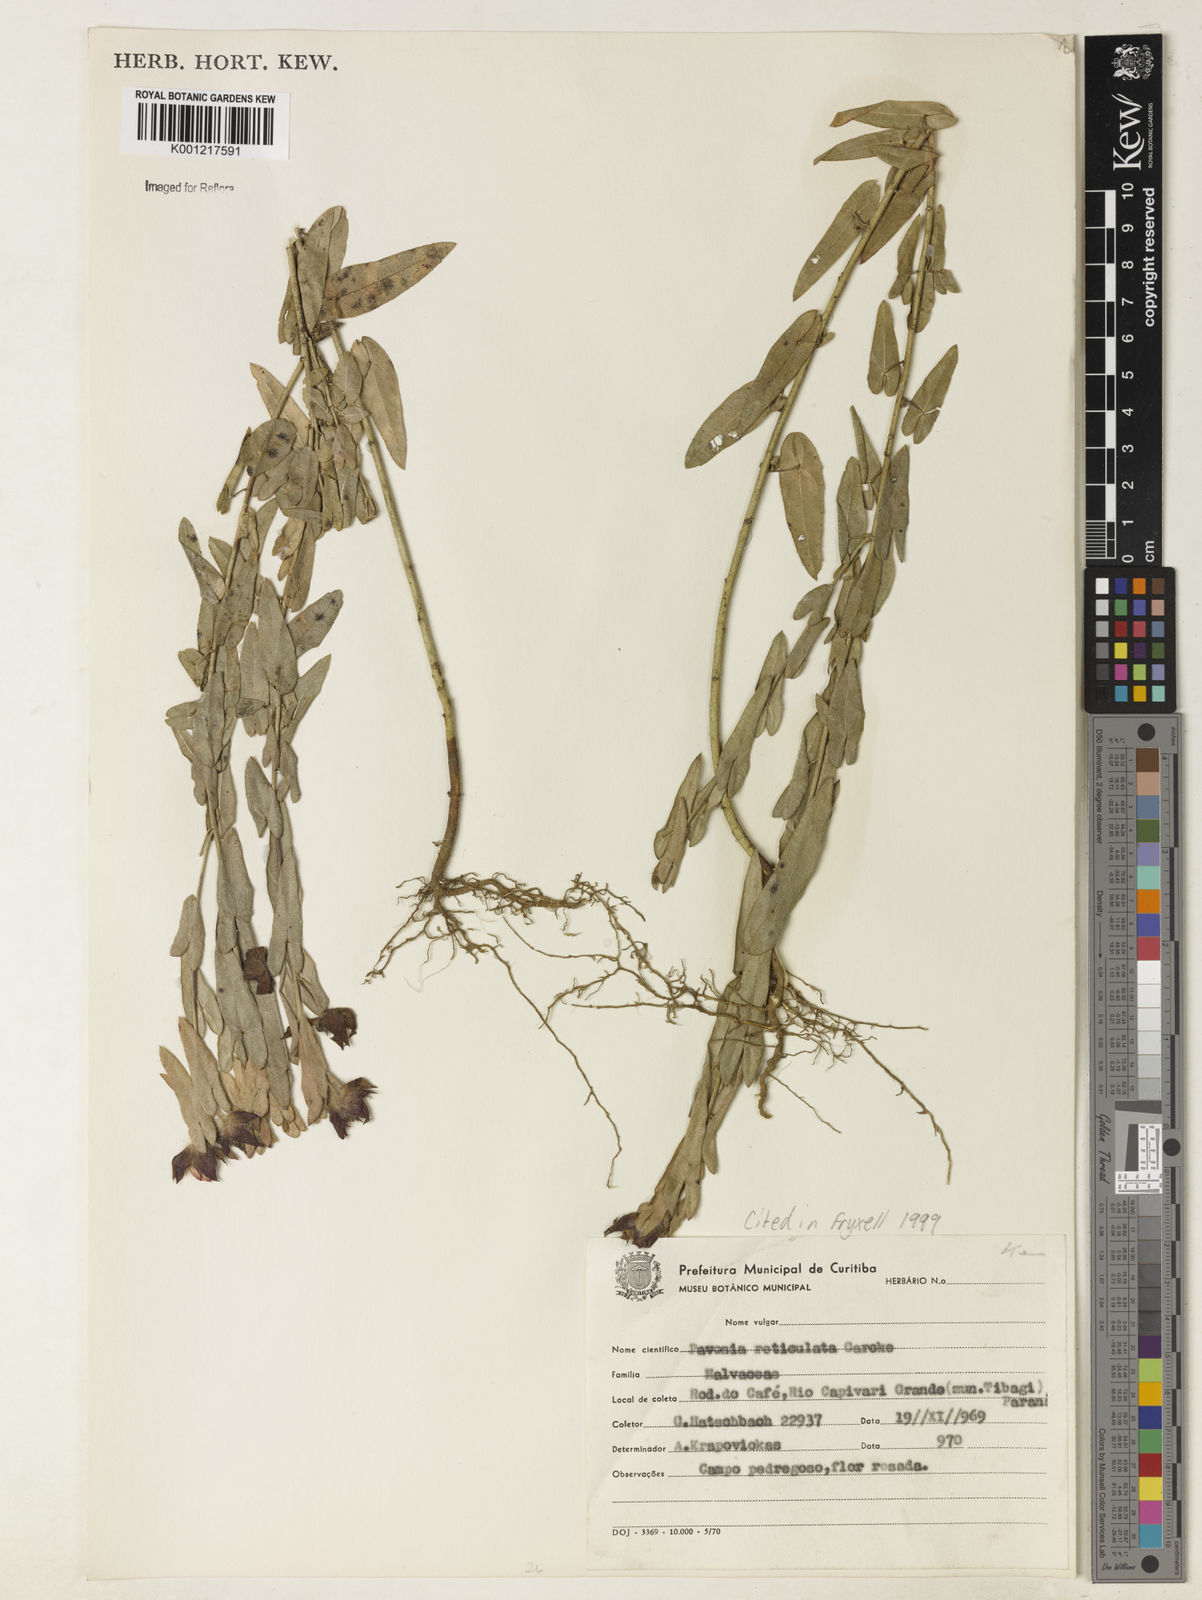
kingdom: Plantae
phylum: Tracheophyta
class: Magnoliopsida
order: Malvales
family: Malvaceae
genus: Pavonia
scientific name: Pavonia reticulata
